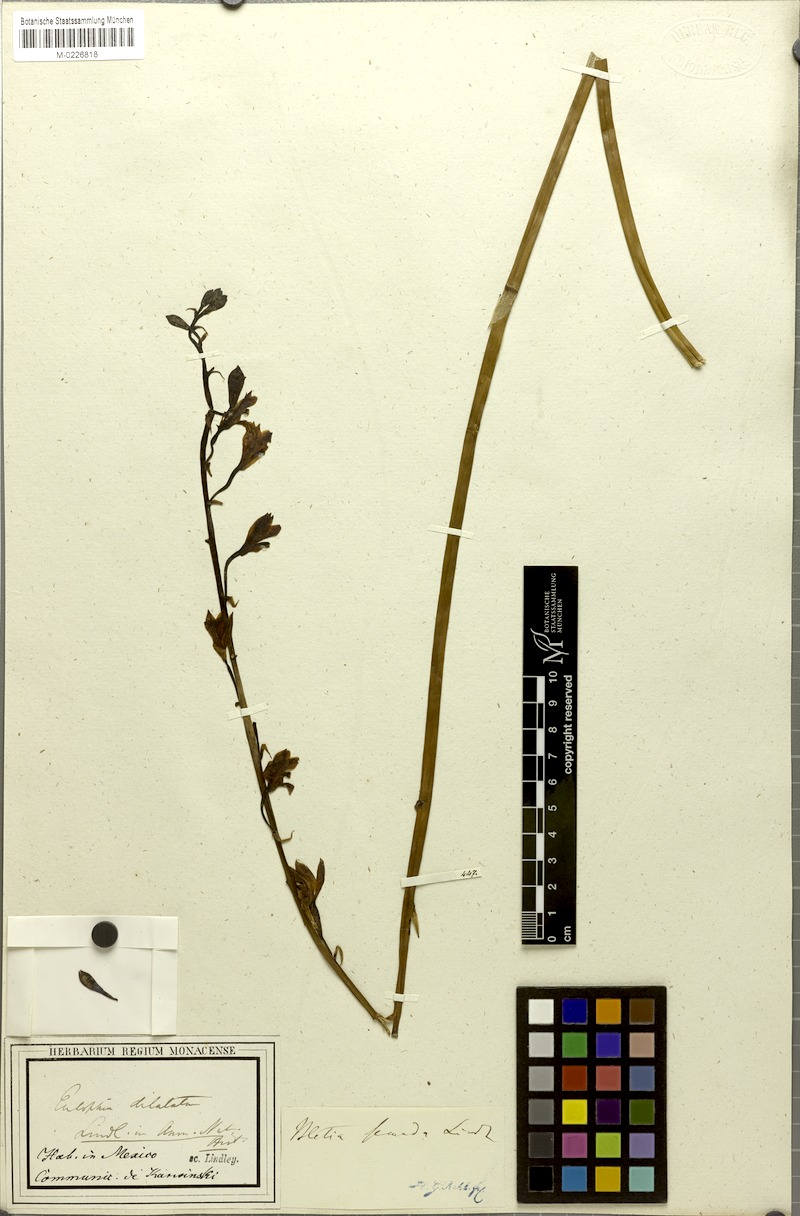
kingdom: Plantae
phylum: Tracheophyta
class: Liliopsida
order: Asparagales
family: Orchidaceae
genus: Bletia
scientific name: Bletia punctata
